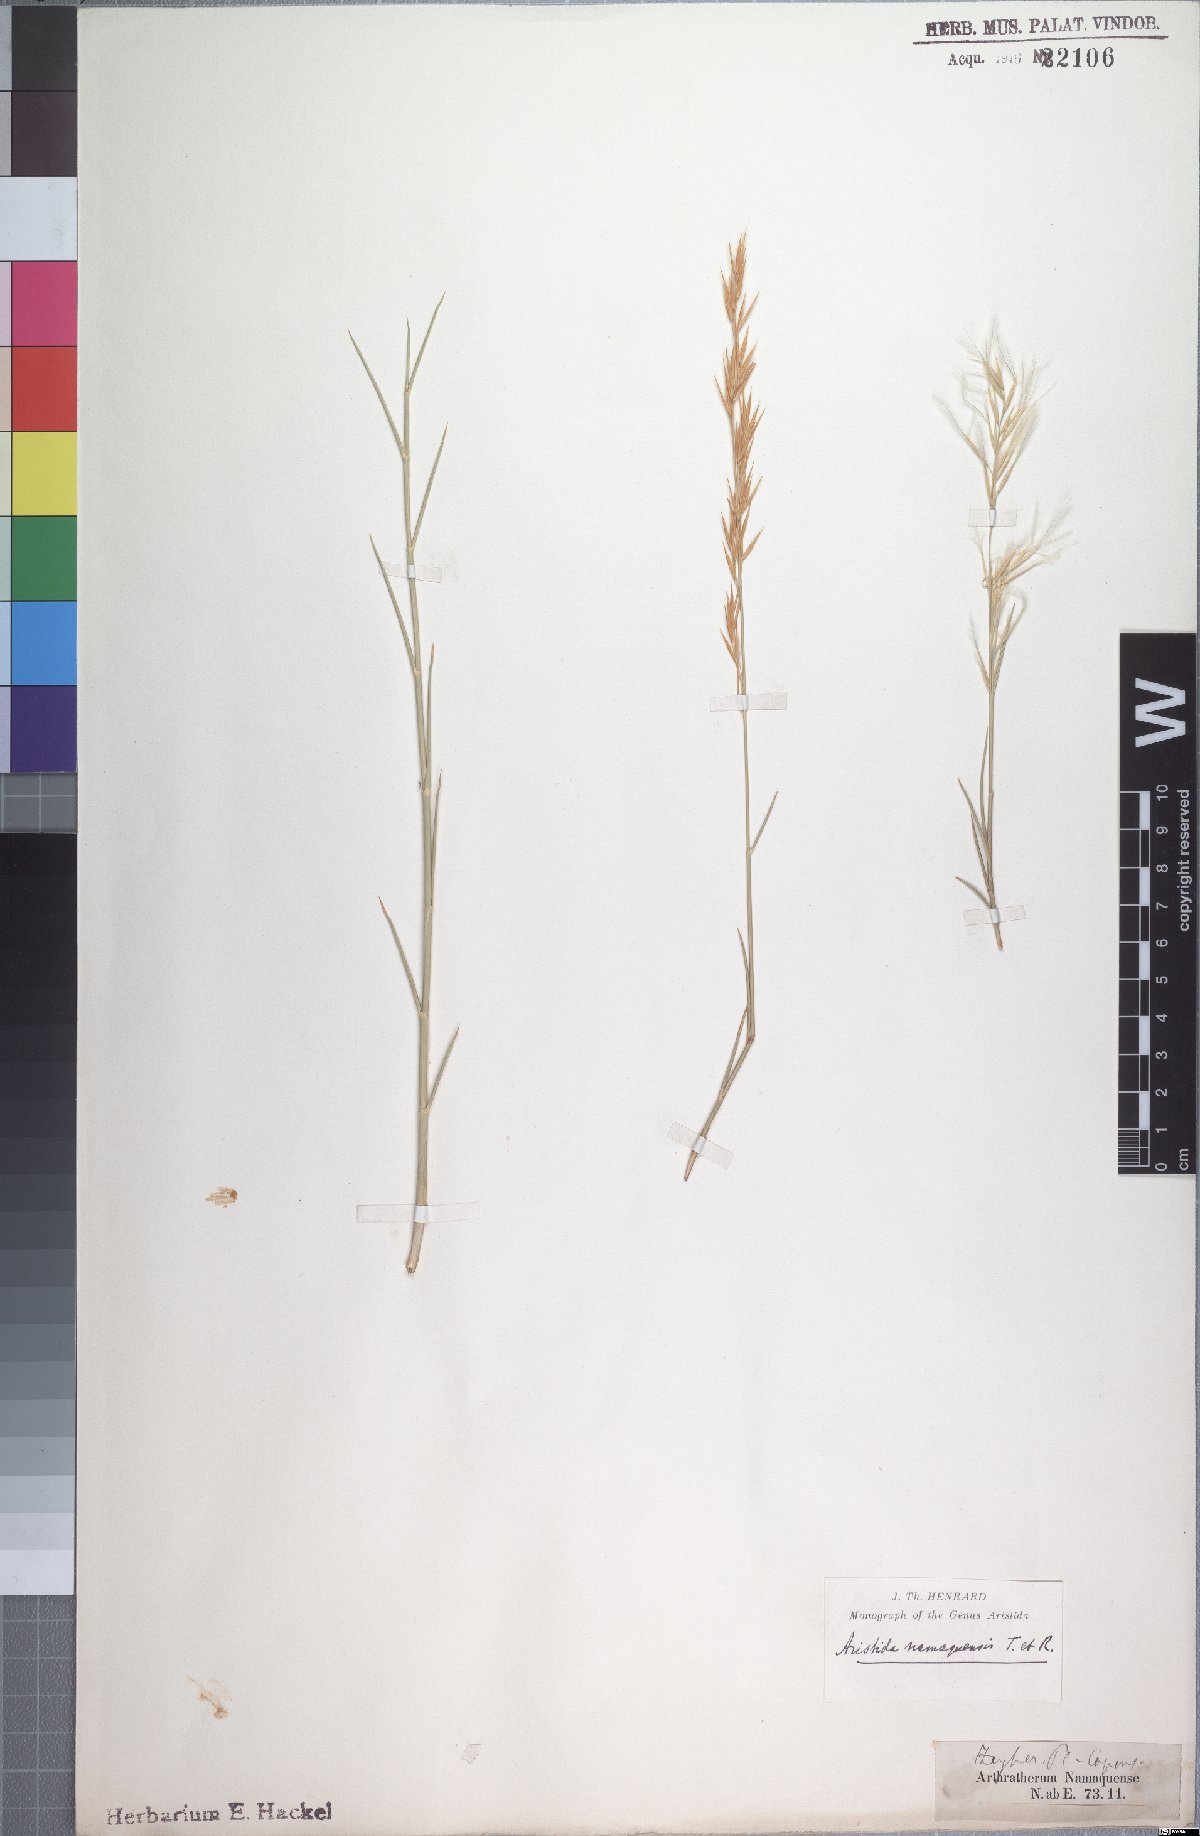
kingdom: Plantae
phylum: Tracheophyta
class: Liliopsida
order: Poales
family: Poaceae
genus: Stipagrostis
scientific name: Stipagrostis namaquensis
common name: River bushman grass
